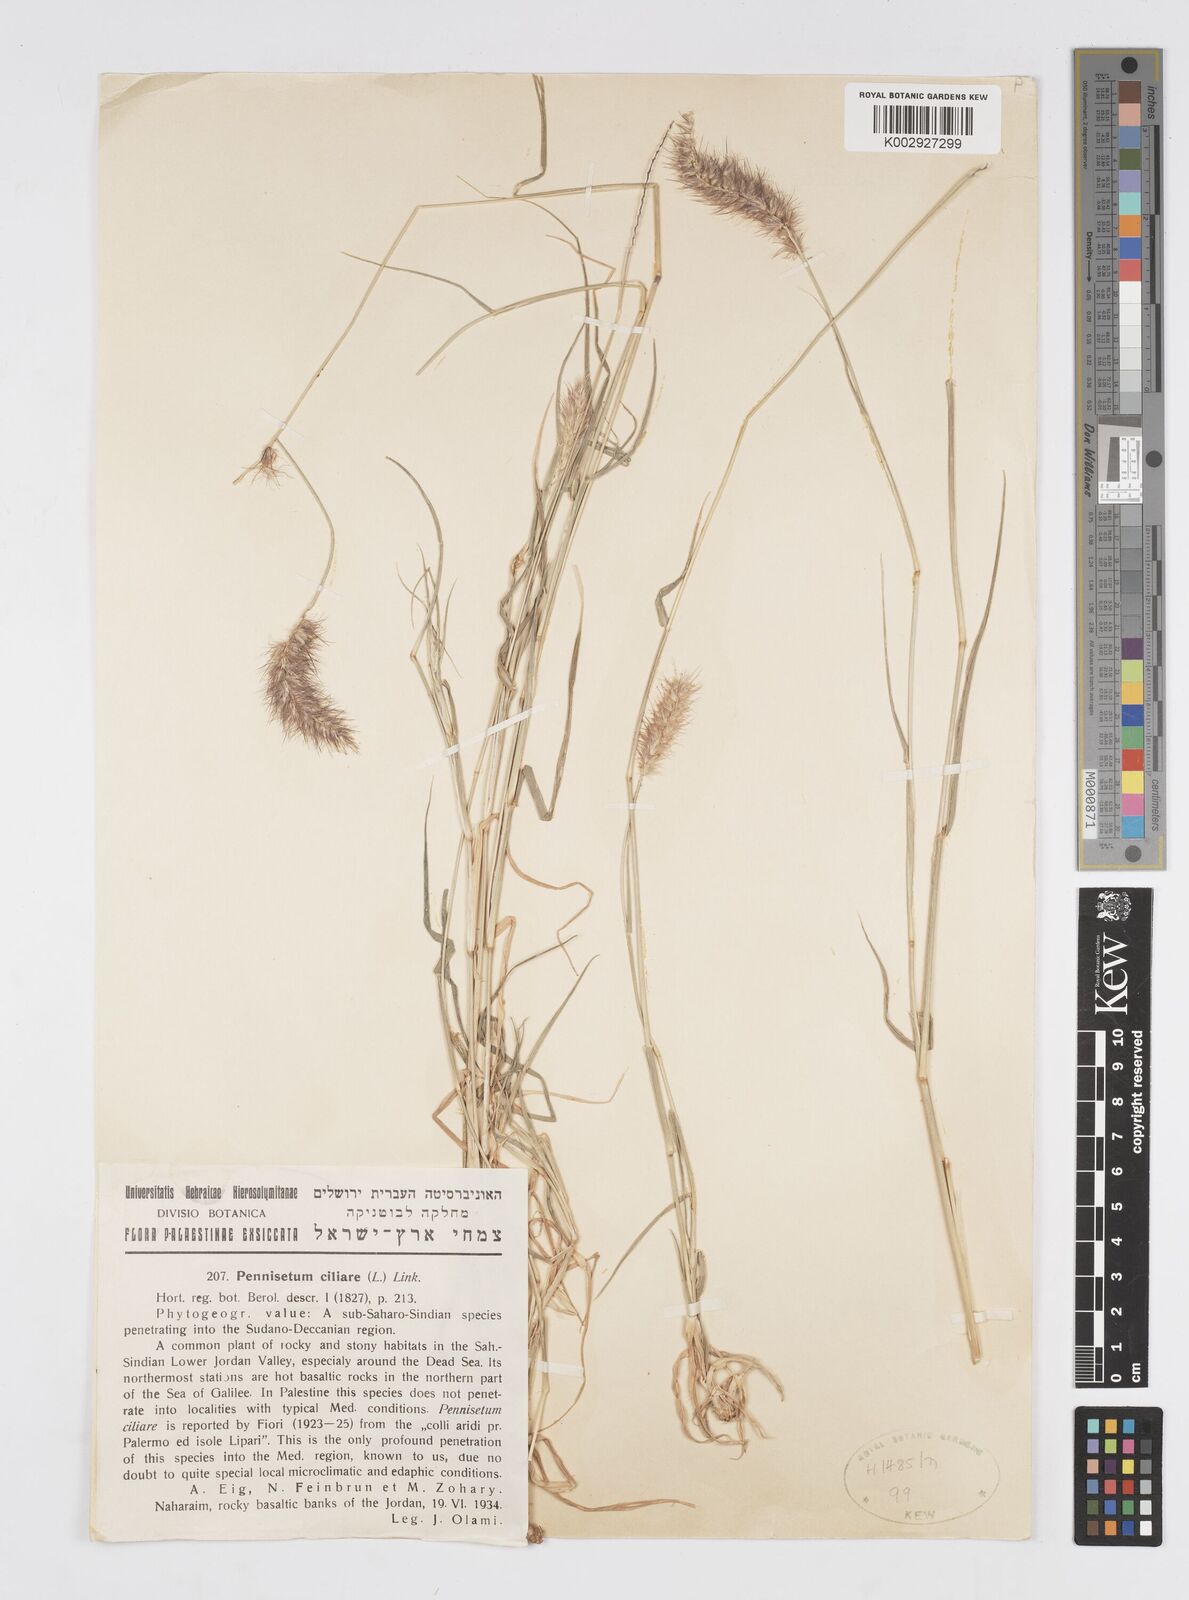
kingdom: Plantae
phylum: Tracheophyta
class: Liliopsida
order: Poales
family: Poaceae
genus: Cenchrus
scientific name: Cenchrus ciliaris
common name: Buffelgrass
